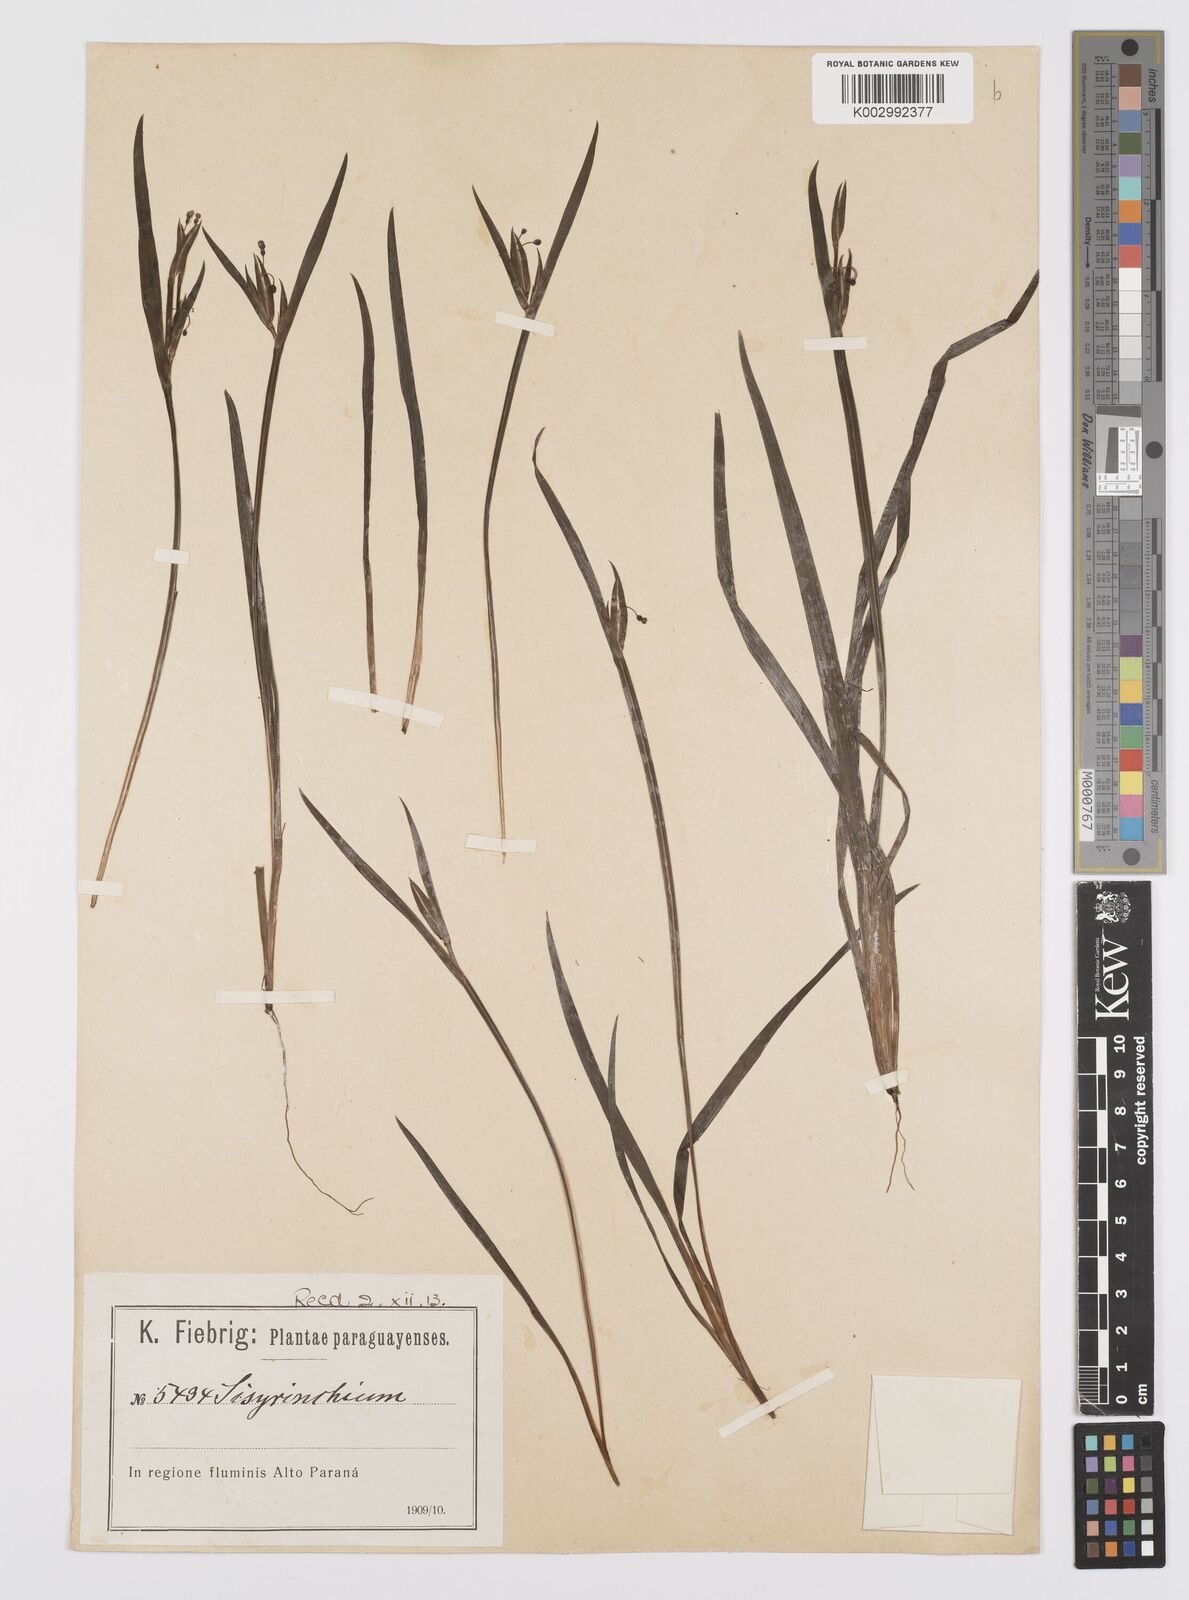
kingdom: Plantae
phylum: Tracheophyta
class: Liliopsida
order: Asparagales
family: Iridaceae
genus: Sisyrinchium
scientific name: Sisyrinchium pachyrhizum
